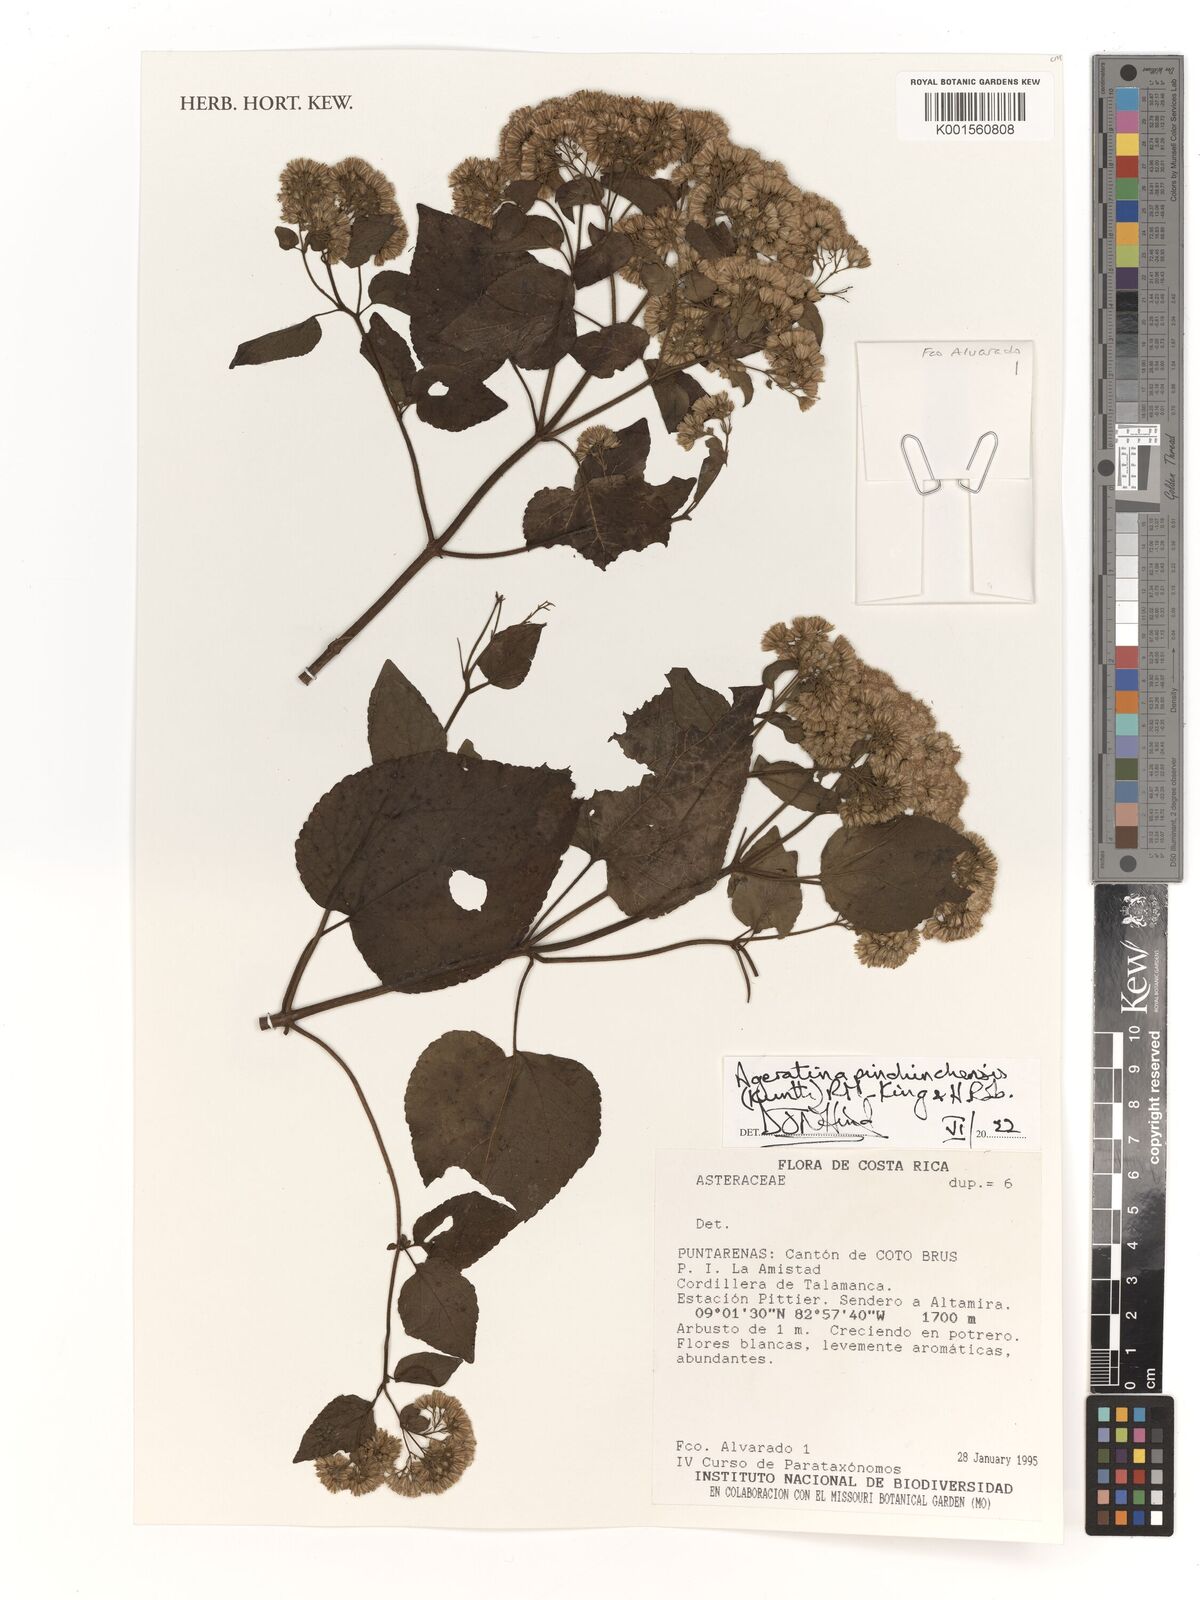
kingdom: Plantae
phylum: Tracheophyta
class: Magnoliopsida
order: Asterales
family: Asteraceae
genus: Ageratina
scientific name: Ageratina pichinchensis
